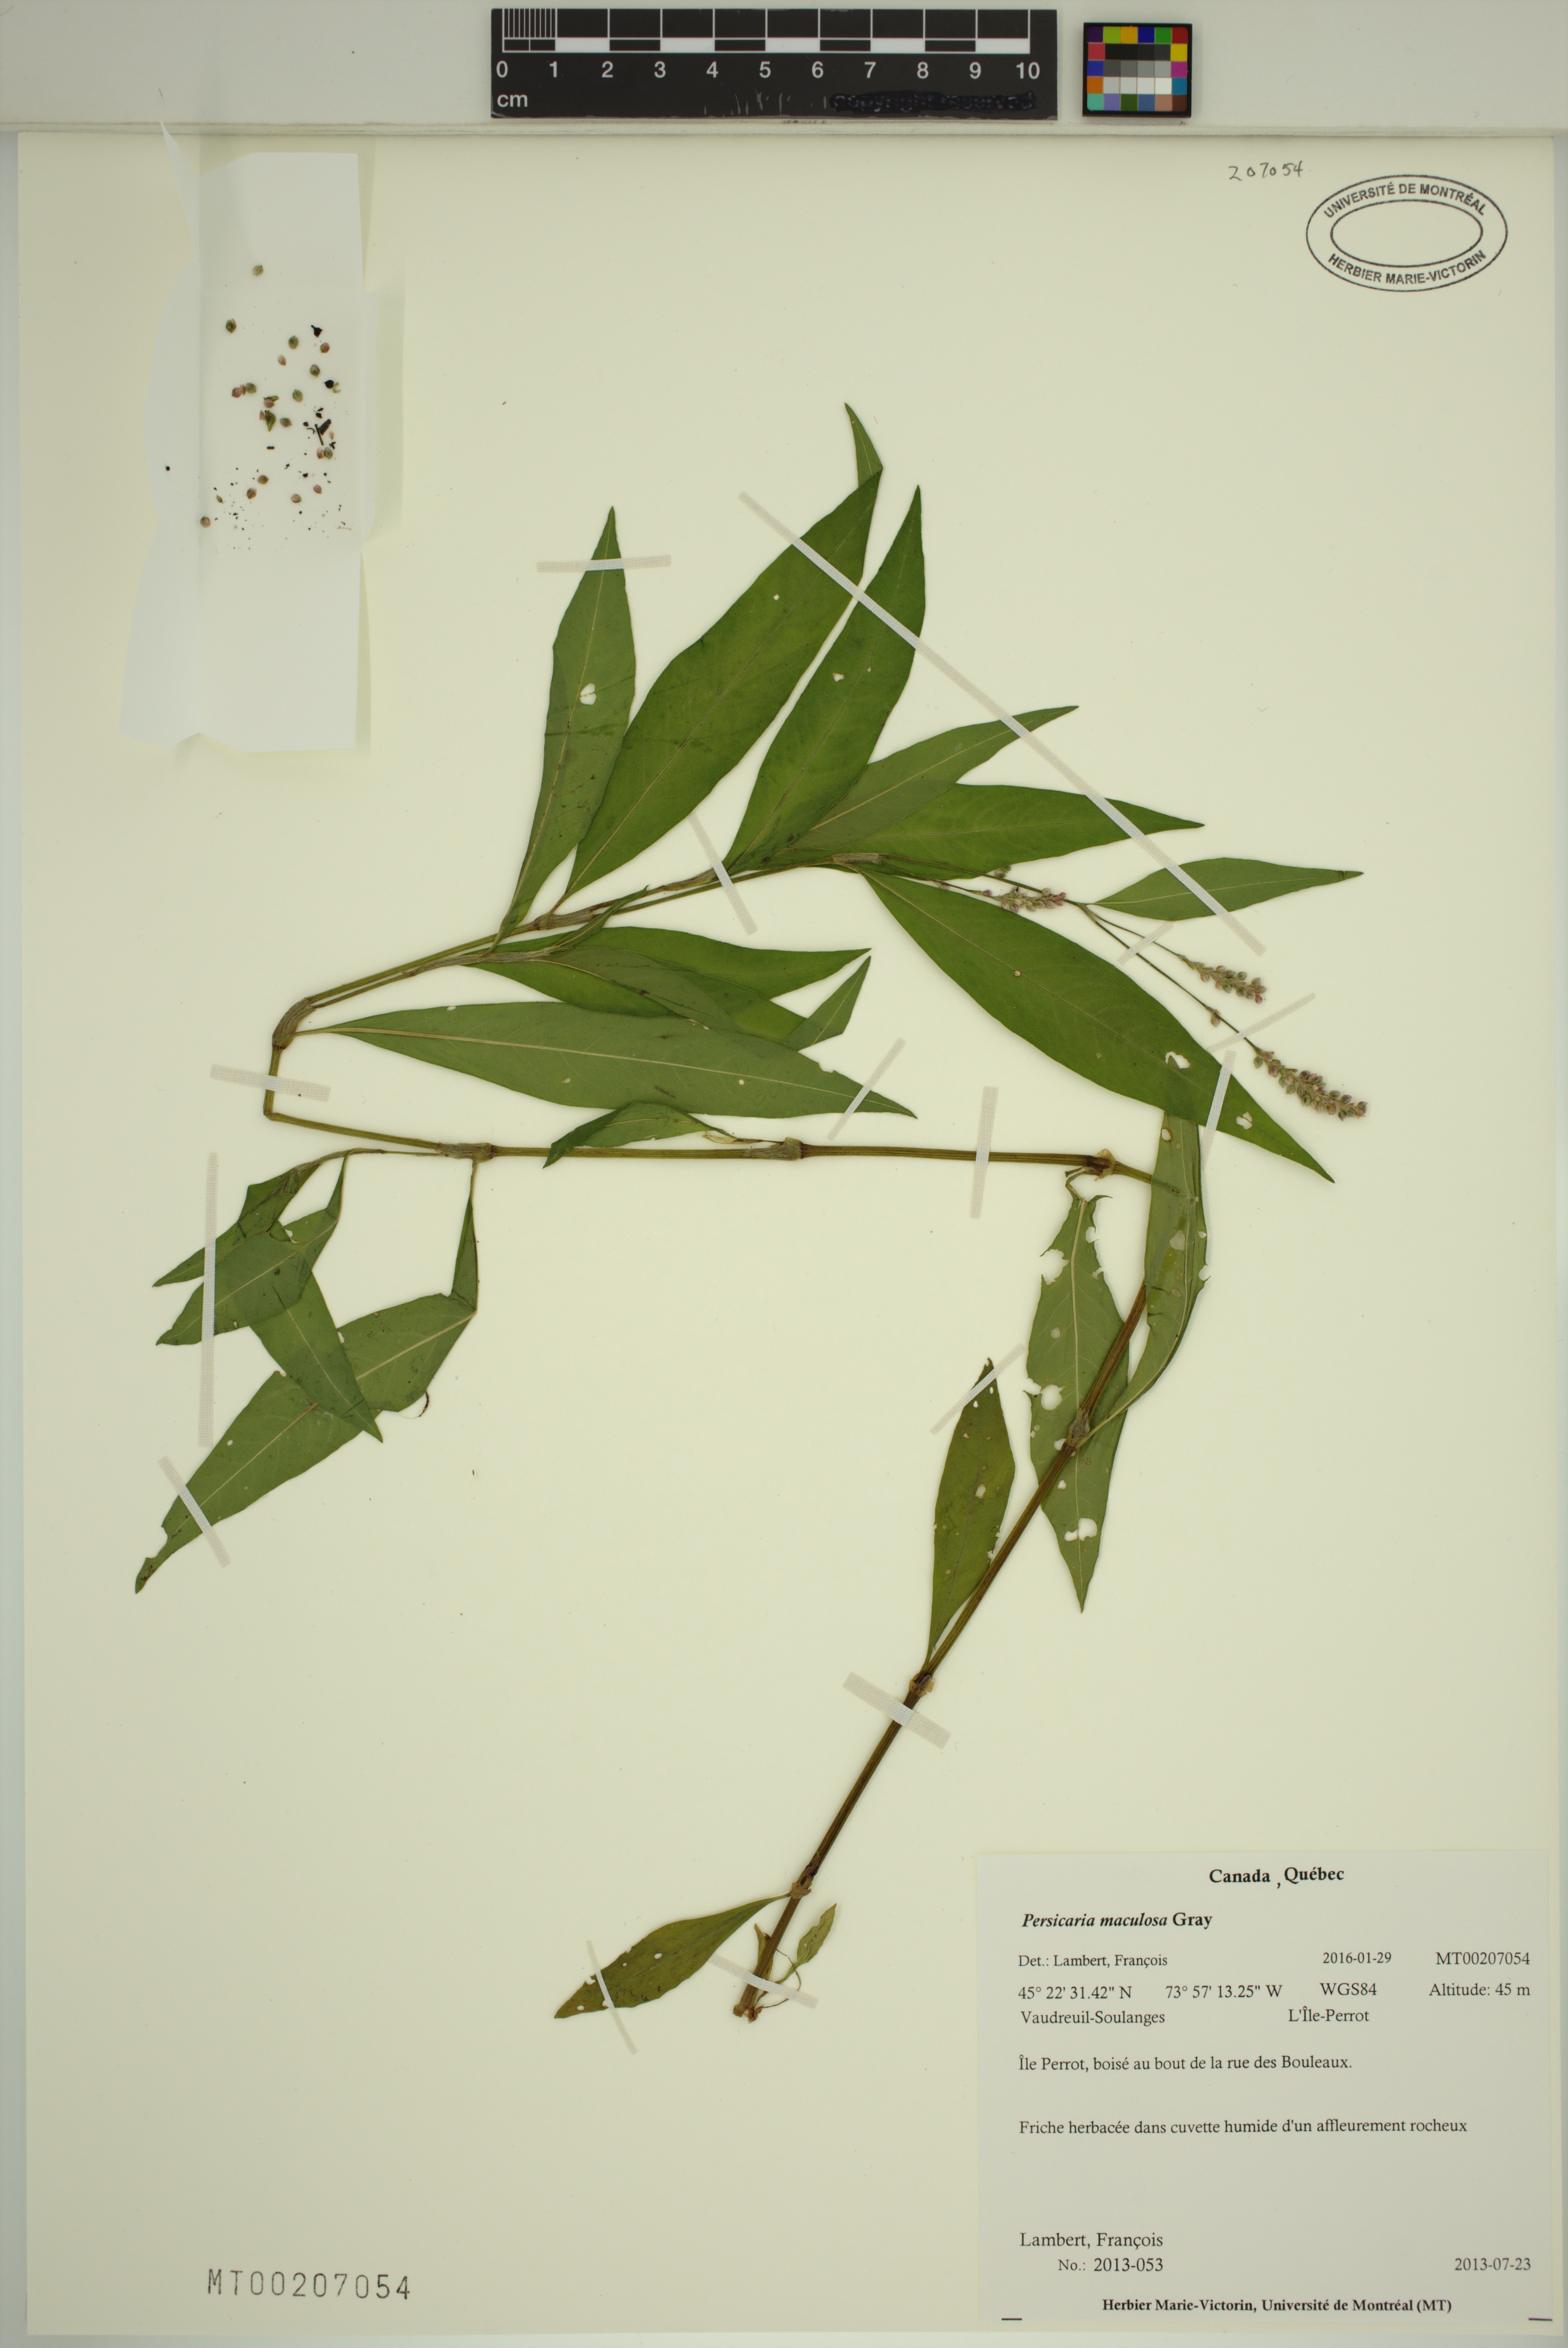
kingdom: Plantae
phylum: Tracheophyta
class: Magnoliopsida
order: Caryophyllales
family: Polygonaceae
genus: Persicaria
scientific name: Persicaria maculosa
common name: Redshank
